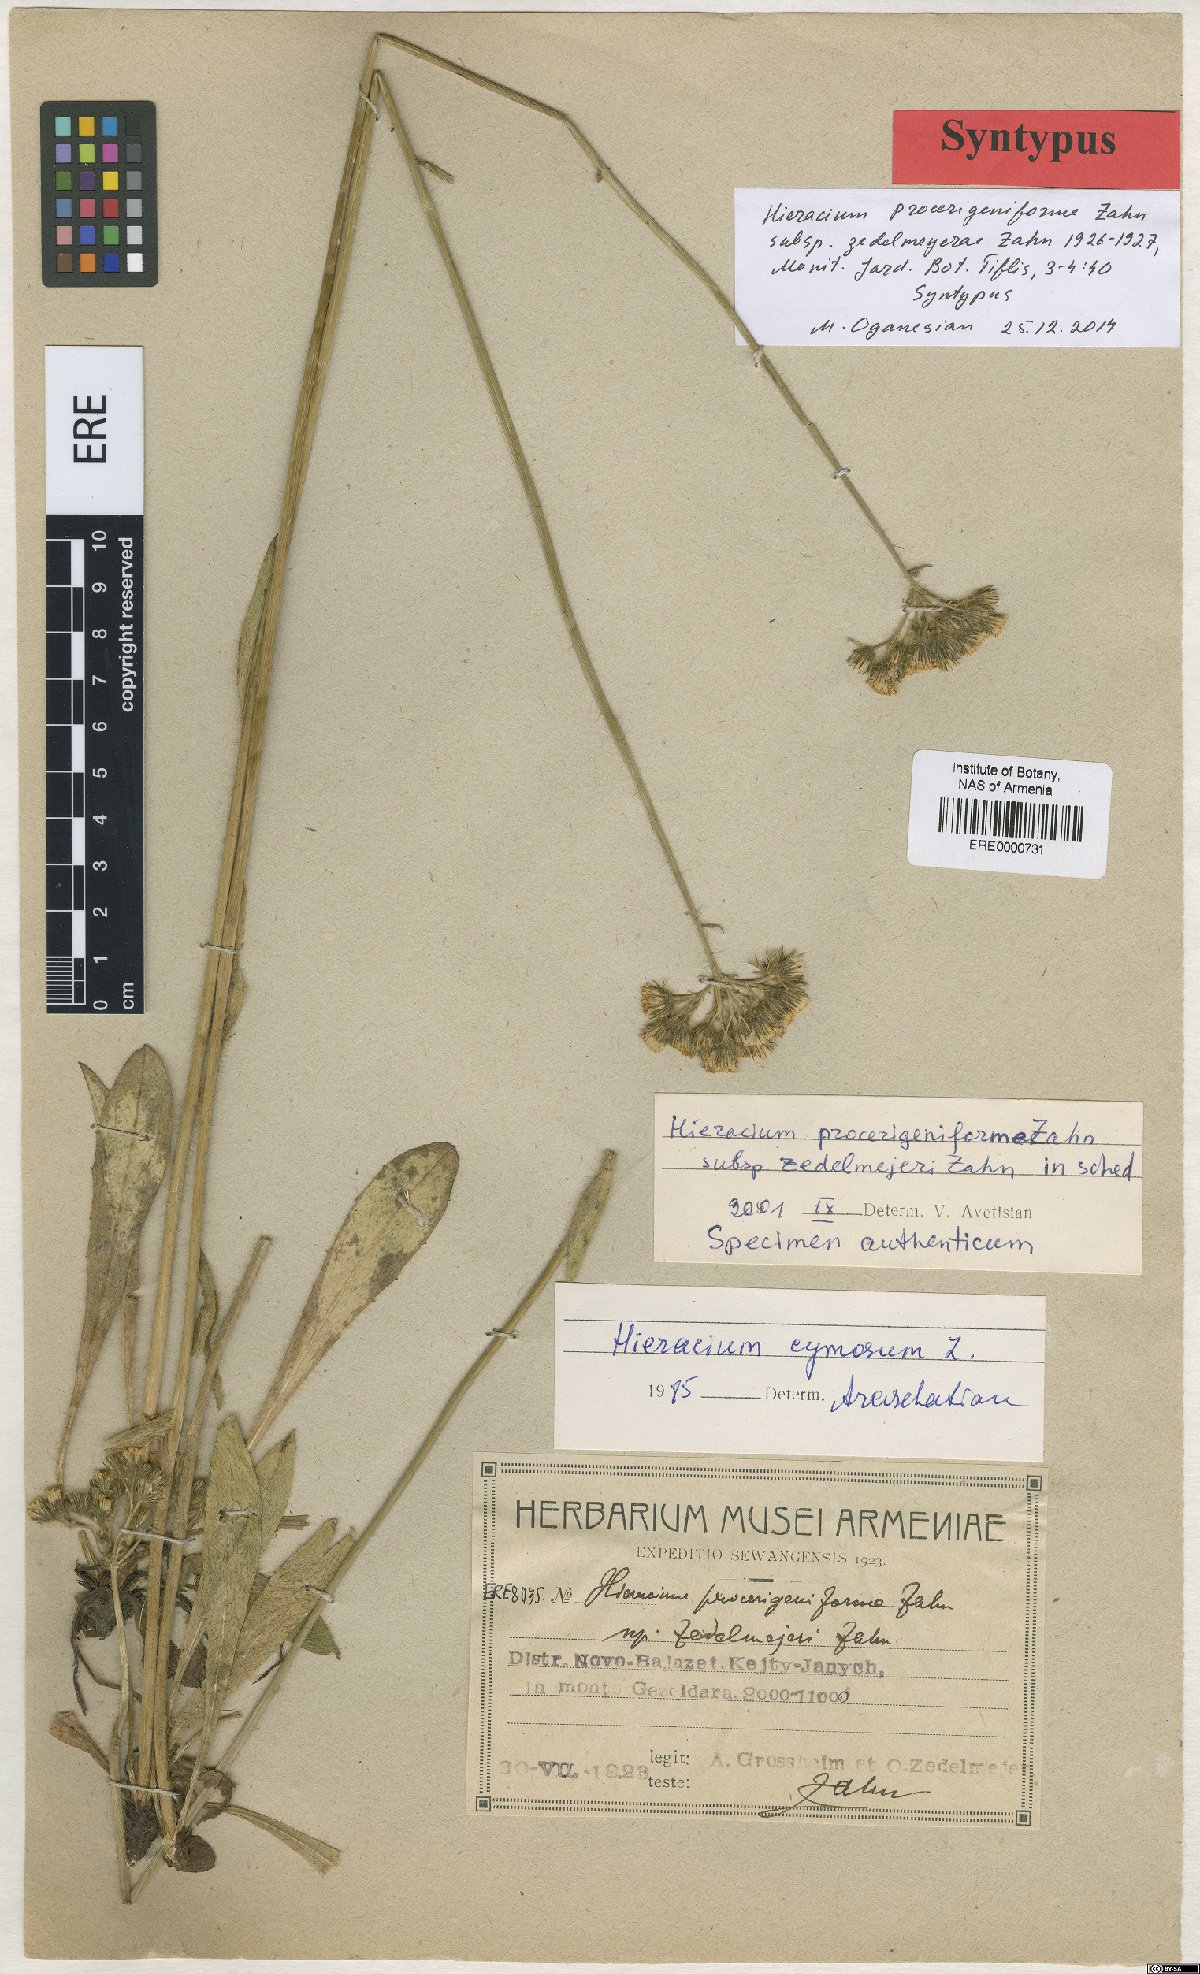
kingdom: Plantae
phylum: Tracheophyta
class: Magnoliopsida
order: Asterales
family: Asteraceae
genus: Pilosella
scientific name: Pilosella pannoniciformis
